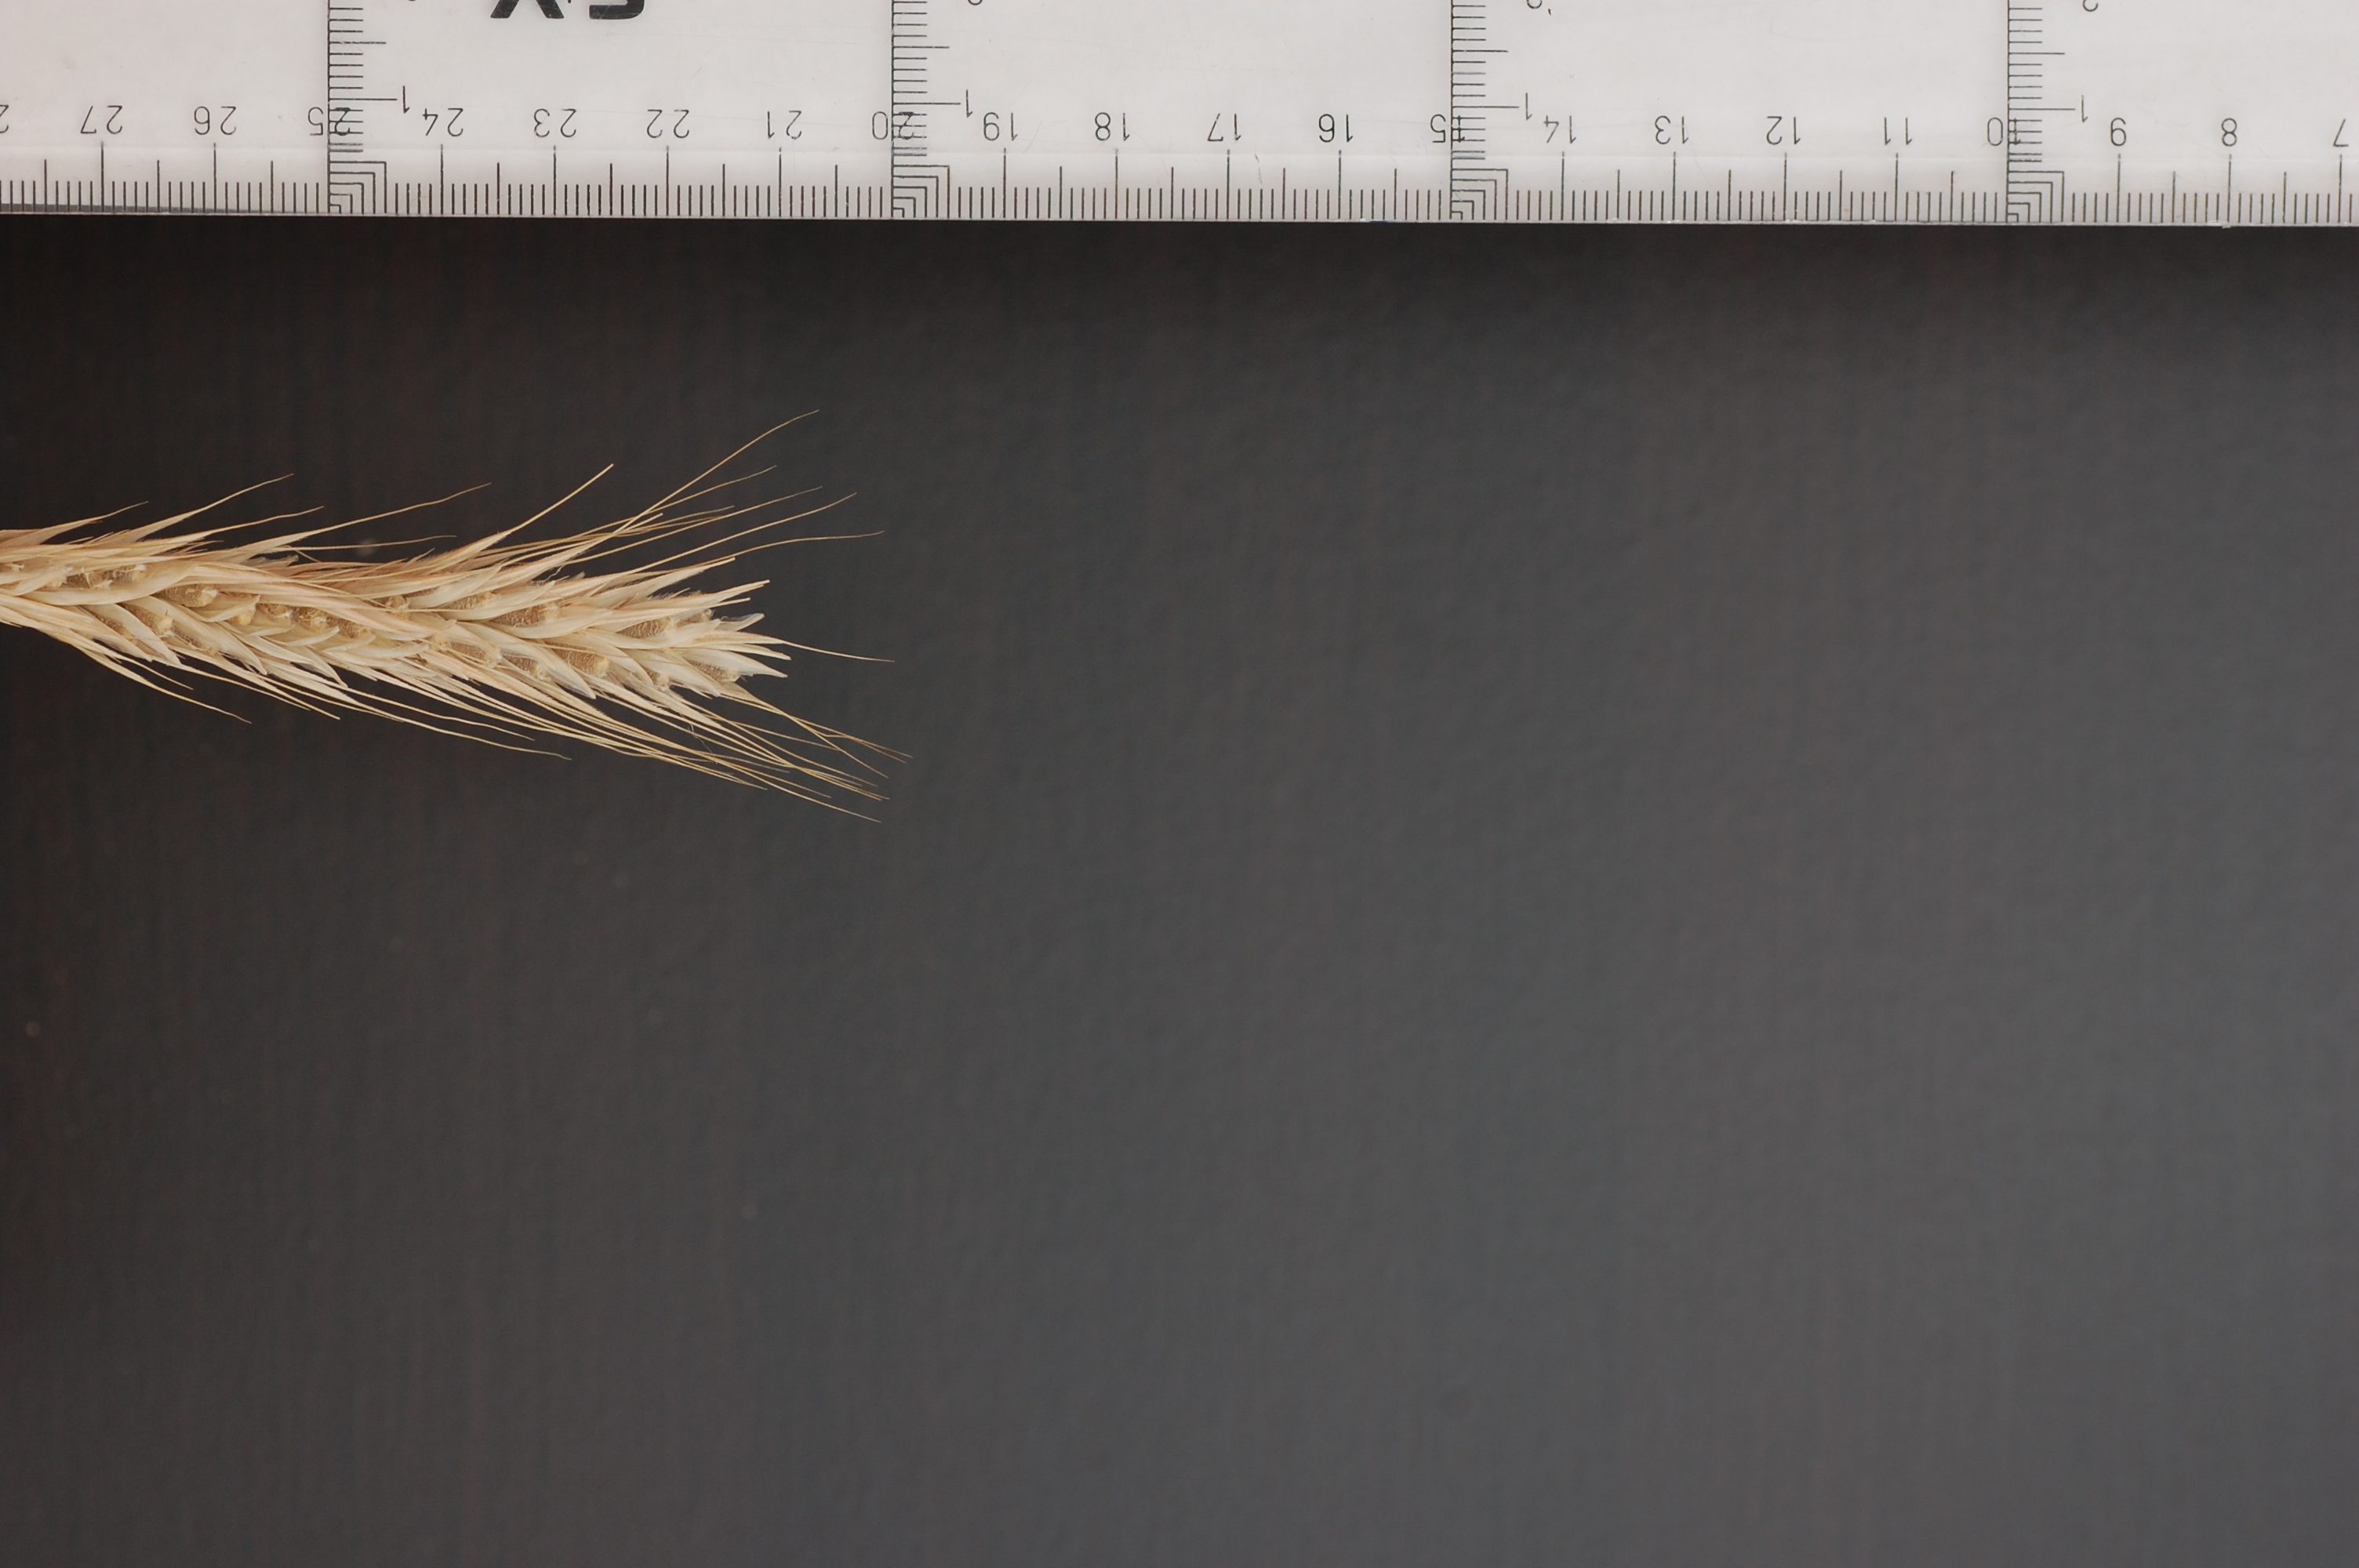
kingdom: Plantae
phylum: Tracheophyta
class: Liliopsida
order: Poales
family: Poaceae
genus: Secale
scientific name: Secale cereale
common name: Rye
